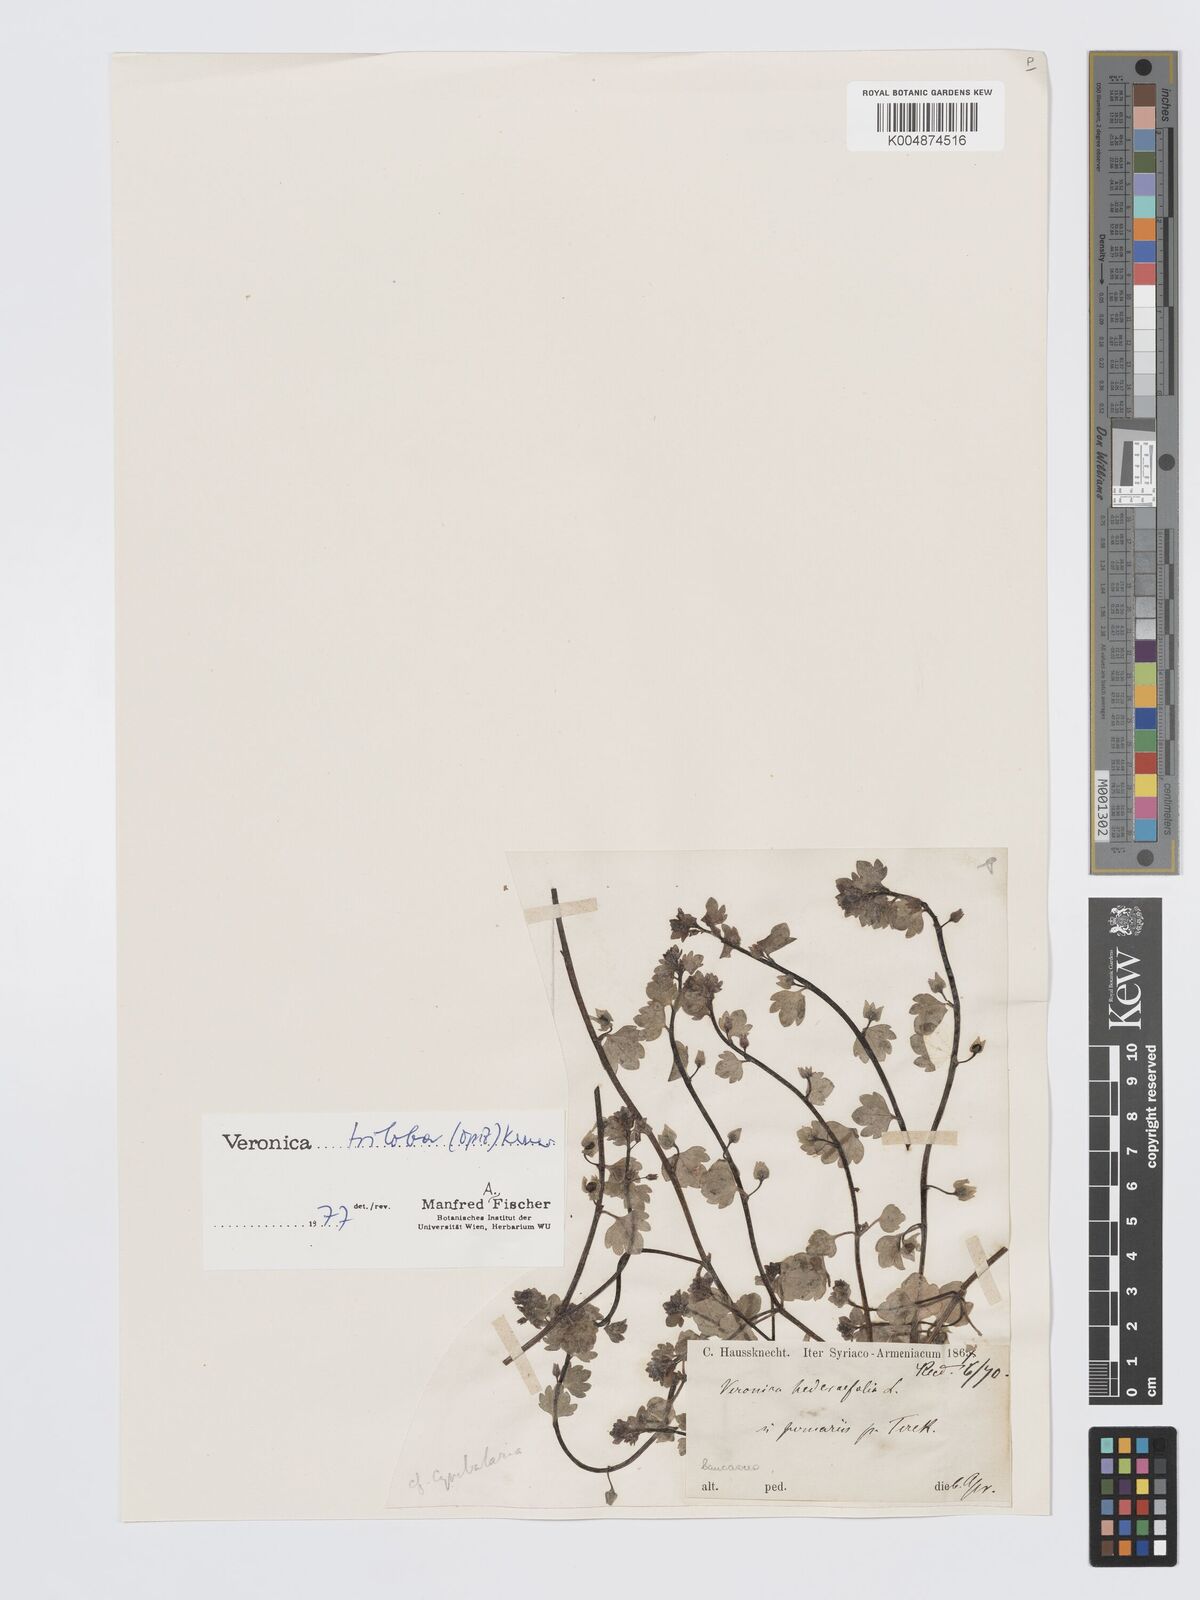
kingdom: Plantae
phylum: Tracheophyta
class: Magnoliopsida
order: Lamiales
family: Plantaginaceae
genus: Veronica
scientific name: Veronica triloba
